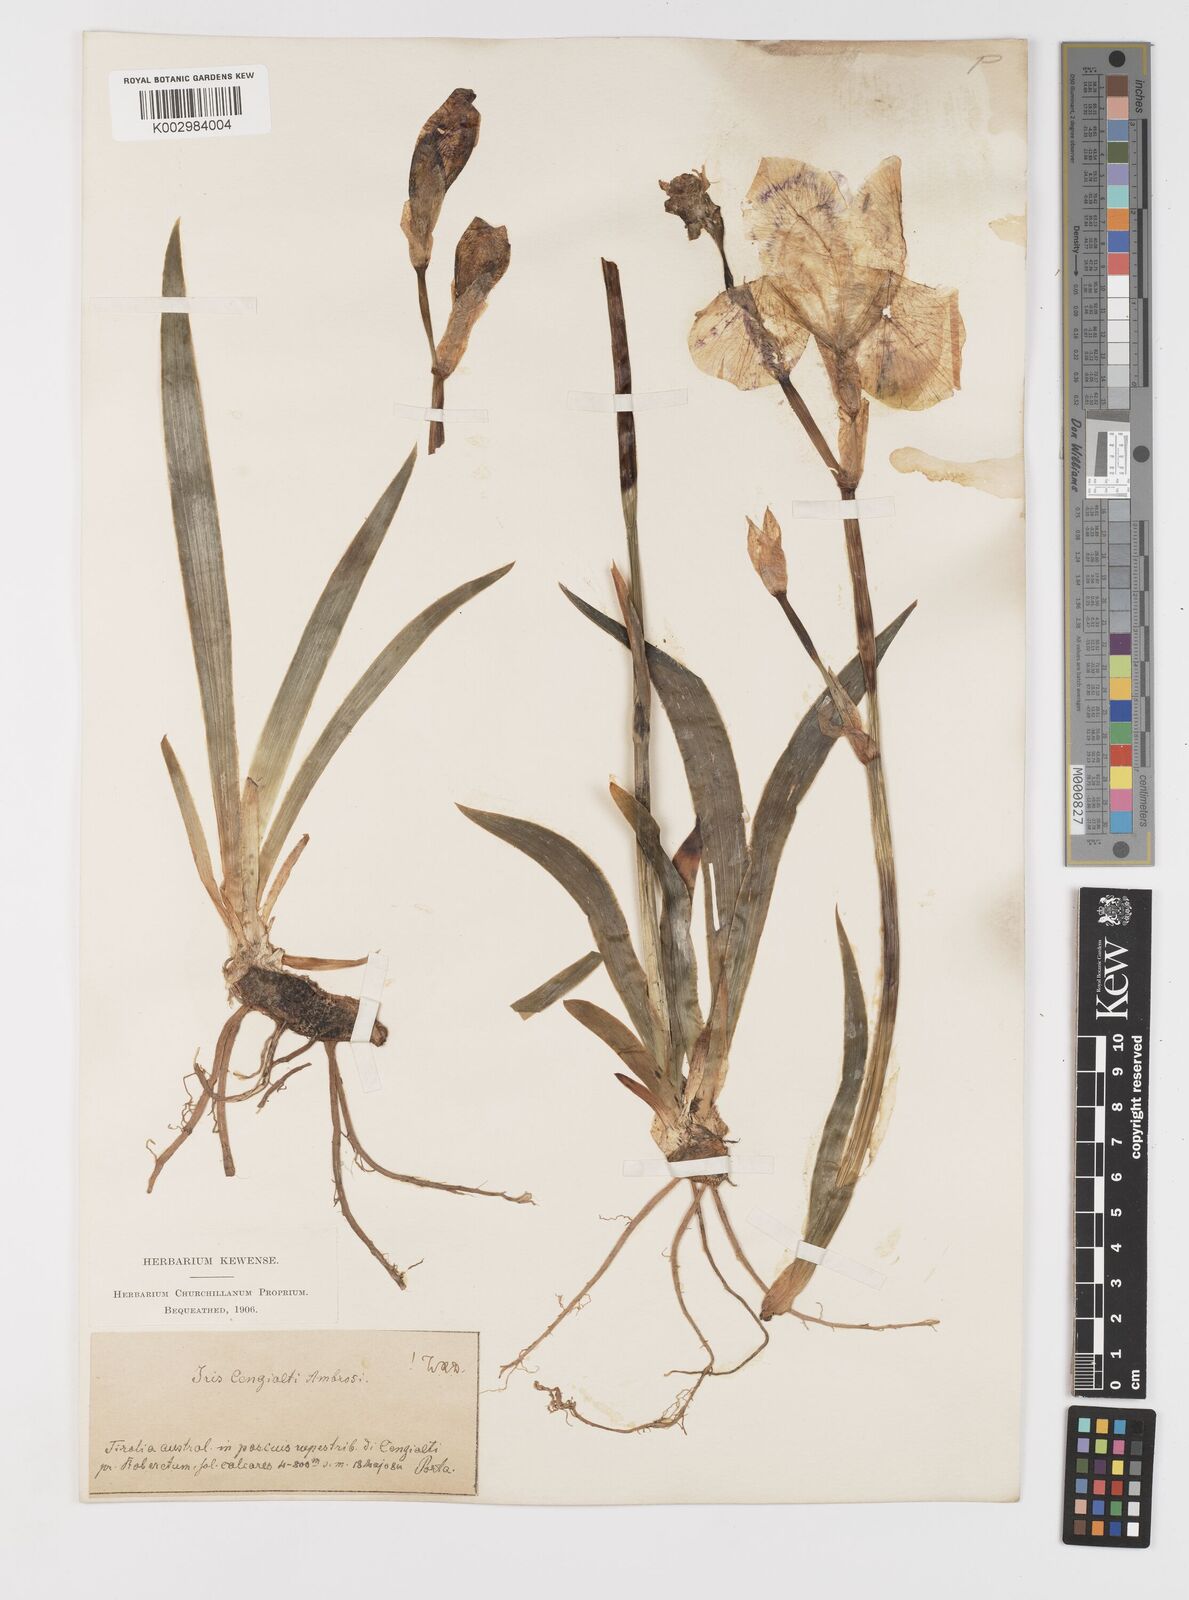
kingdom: Plantae
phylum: Tracheophyta
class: Liliopsida
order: Asparagales
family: Iridaceae
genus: Iris
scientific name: Iris pallida
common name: Sweet iris
